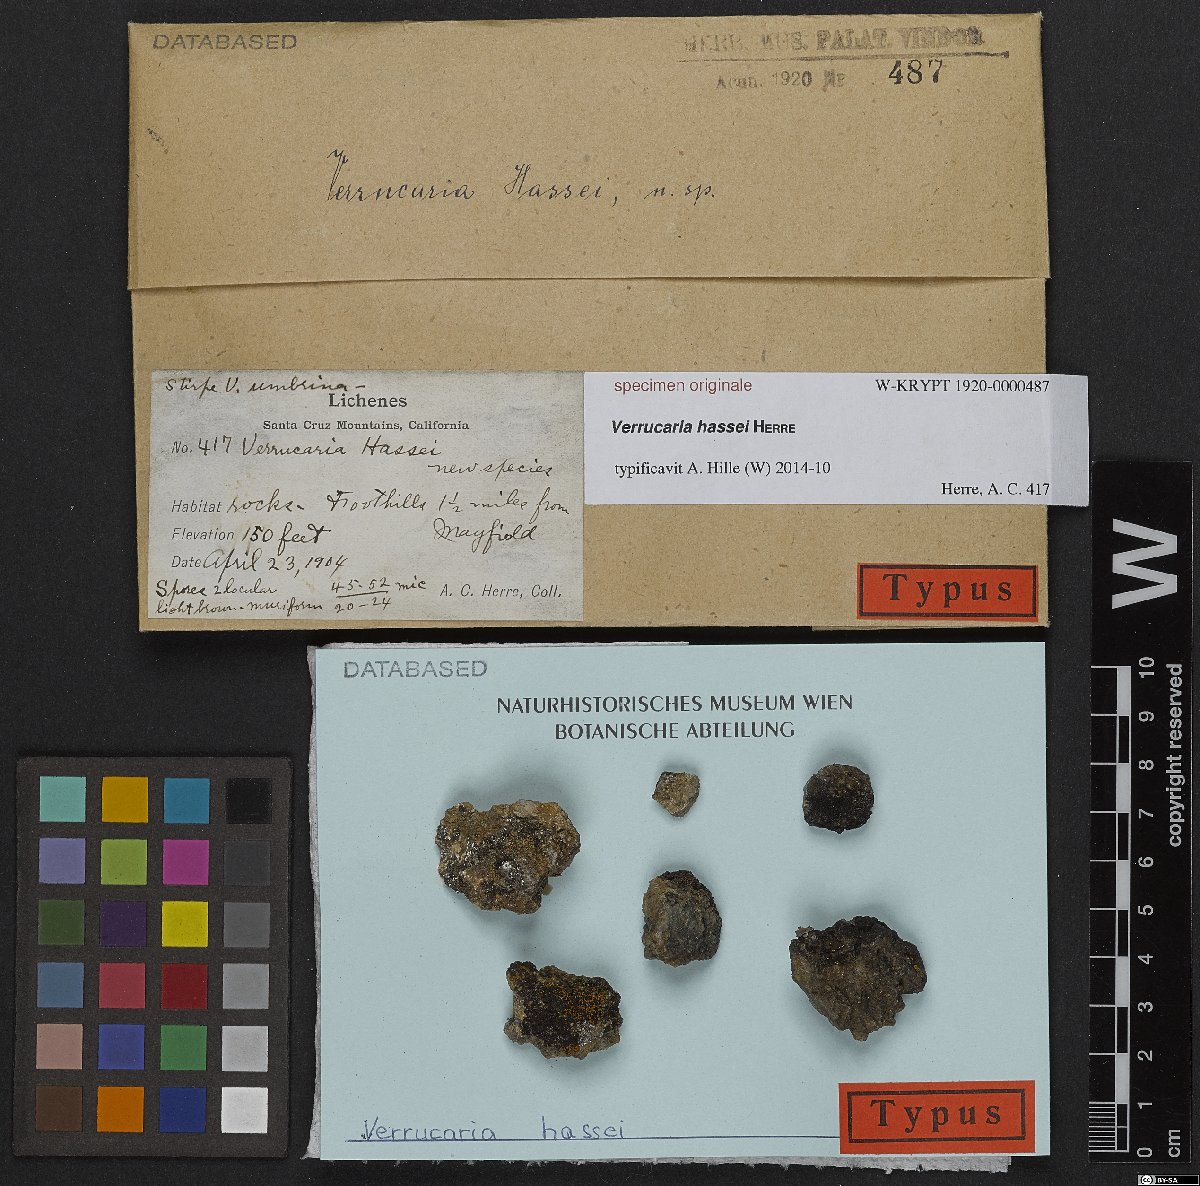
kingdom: Fungi
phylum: Ascomycota
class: Eurotiomycetes
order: Verrucariales
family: Verrucariaceae
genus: Verrucaria
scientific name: Verrucaria
